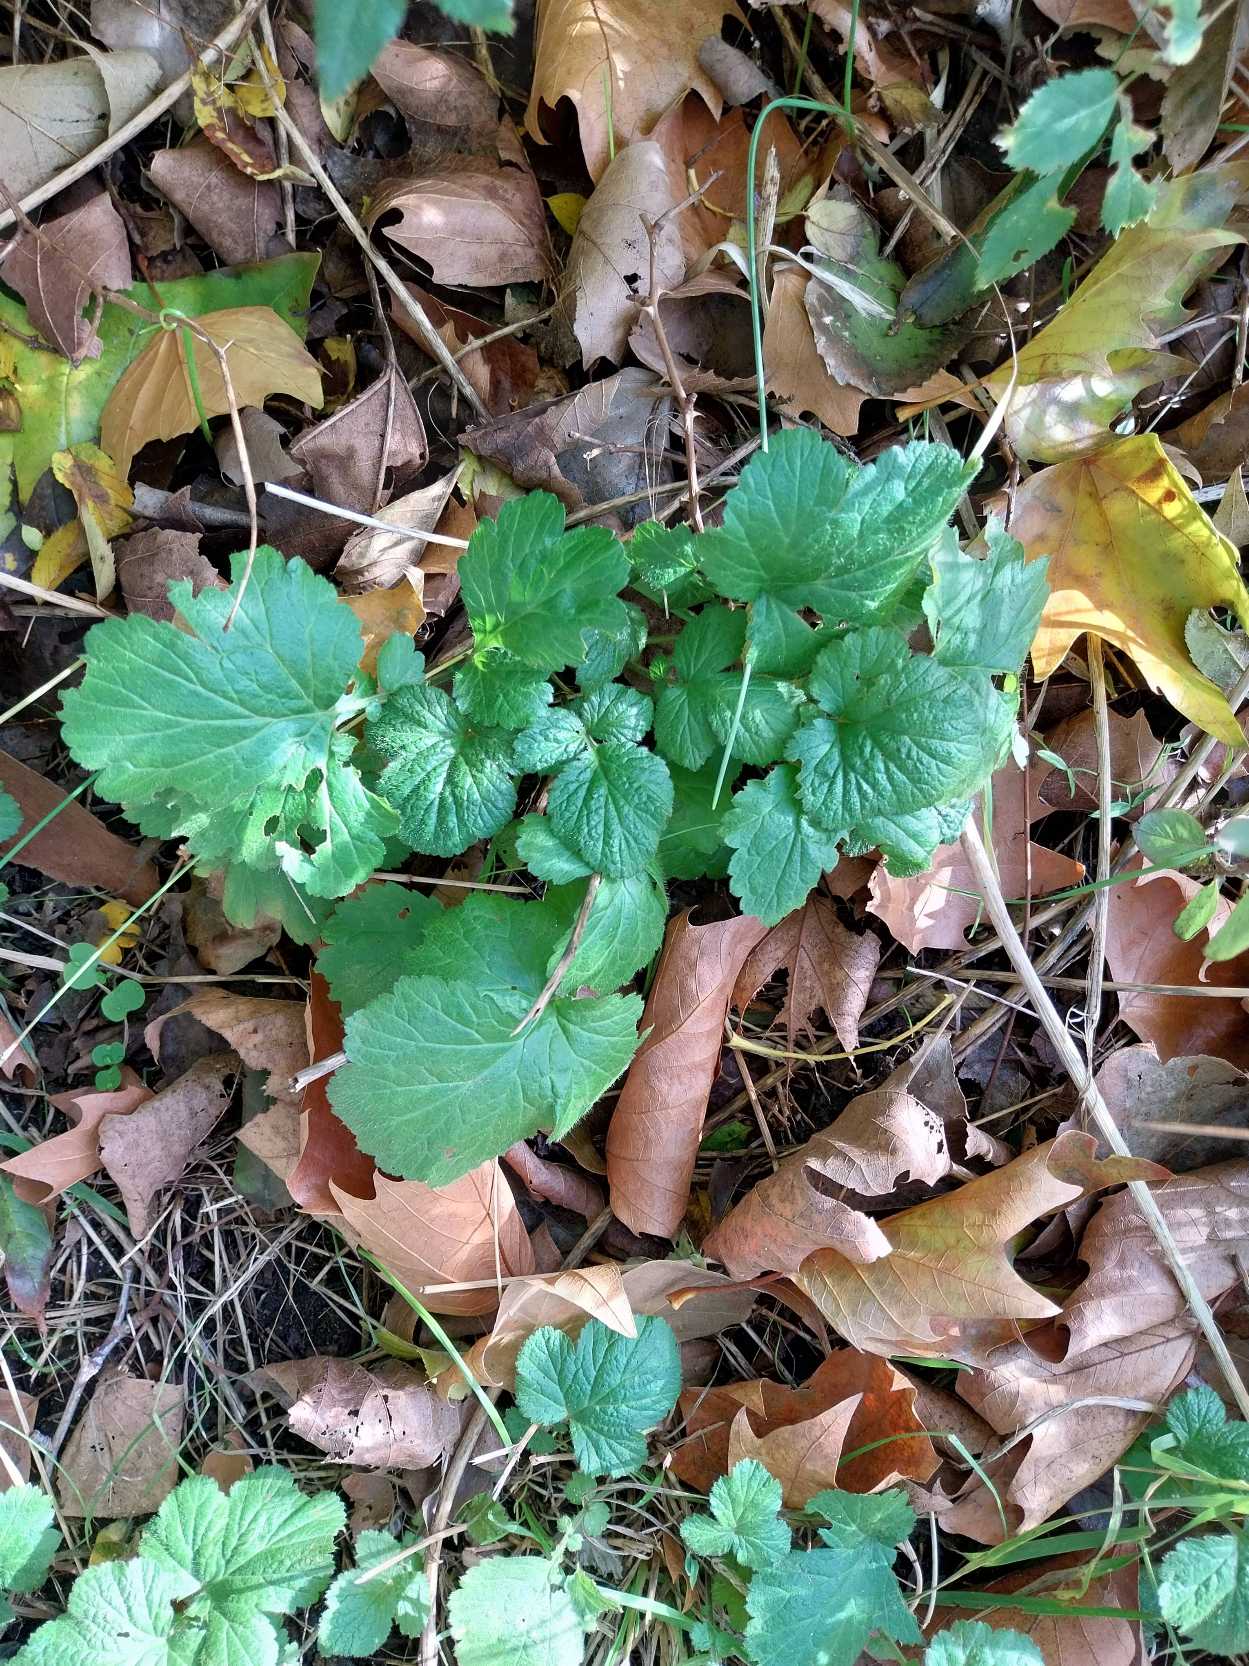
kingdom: Plantae
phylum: Tracheophyta
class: Magnoliopsida
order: Rosales
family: Rosaceae
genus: Geum
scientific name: Geum urbanum
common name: Feber-nellikerod
